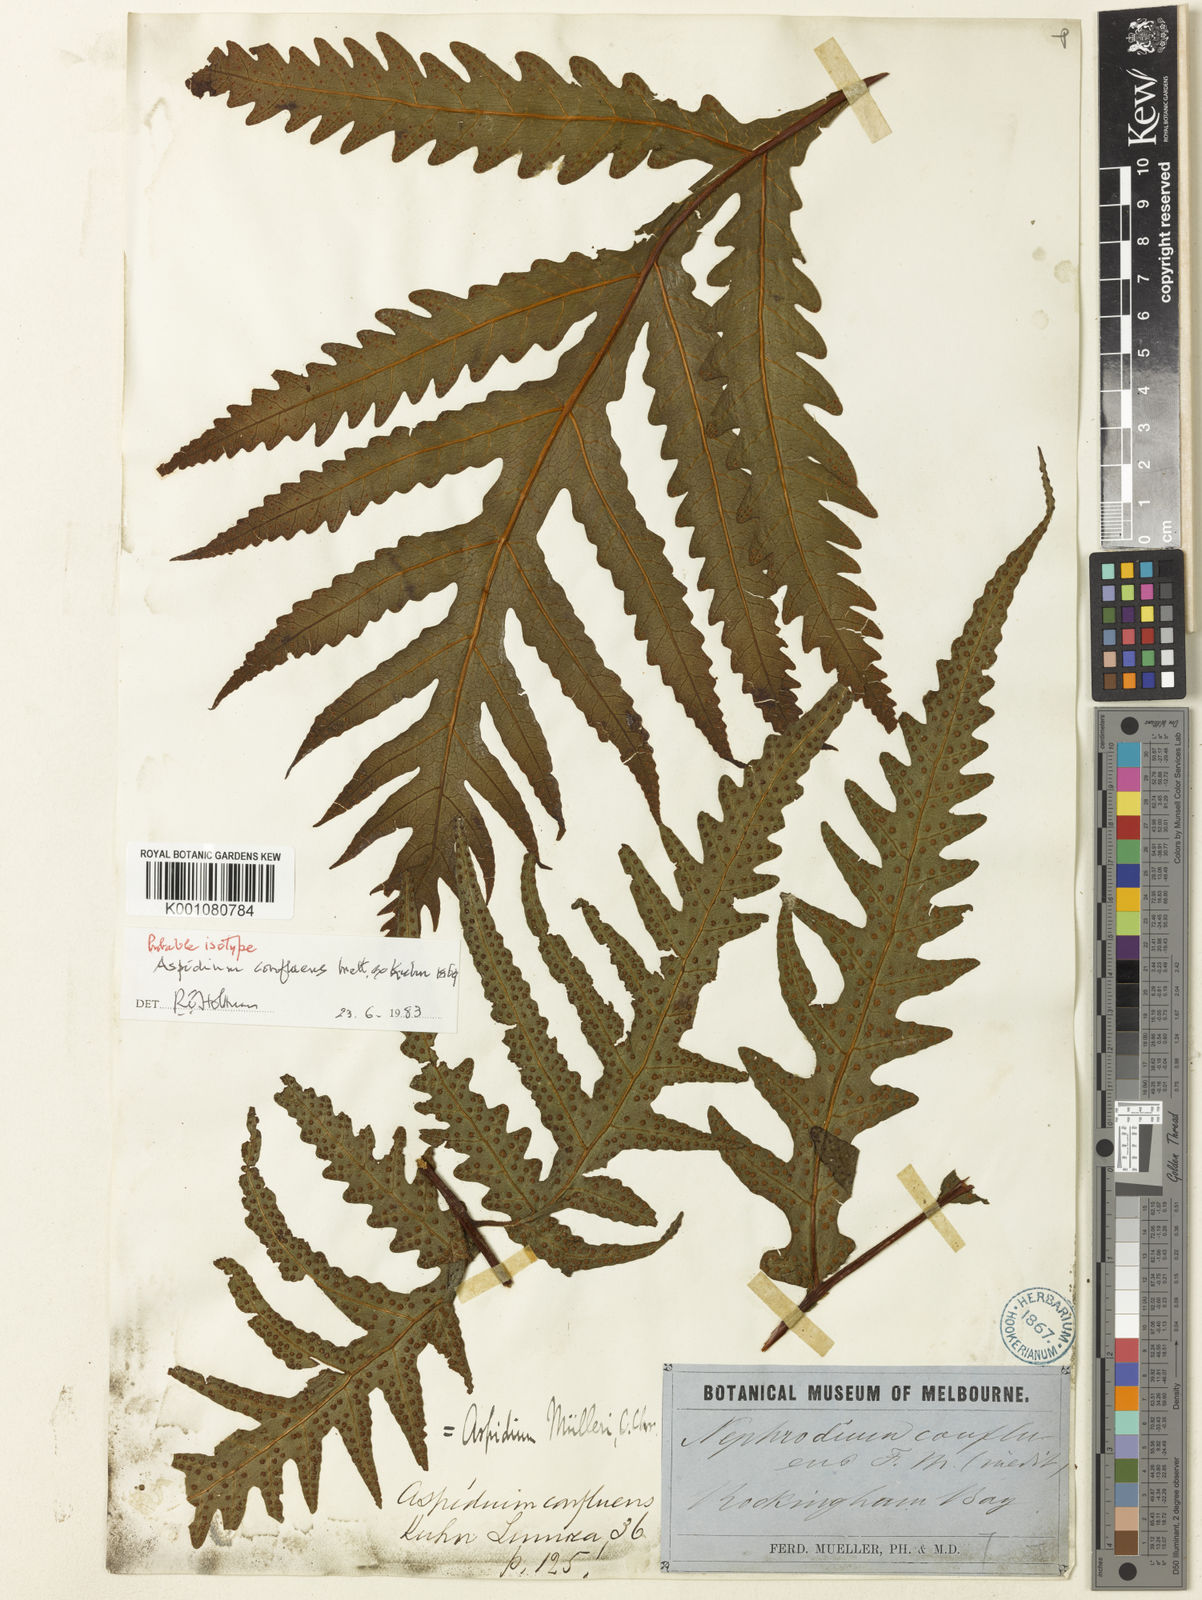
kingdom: Plantae
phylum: Tracheophyta
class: Polypodiopsida
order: Polypodiales
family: Tectariaceae
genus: Tectaria
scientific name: Tectaria confluens
